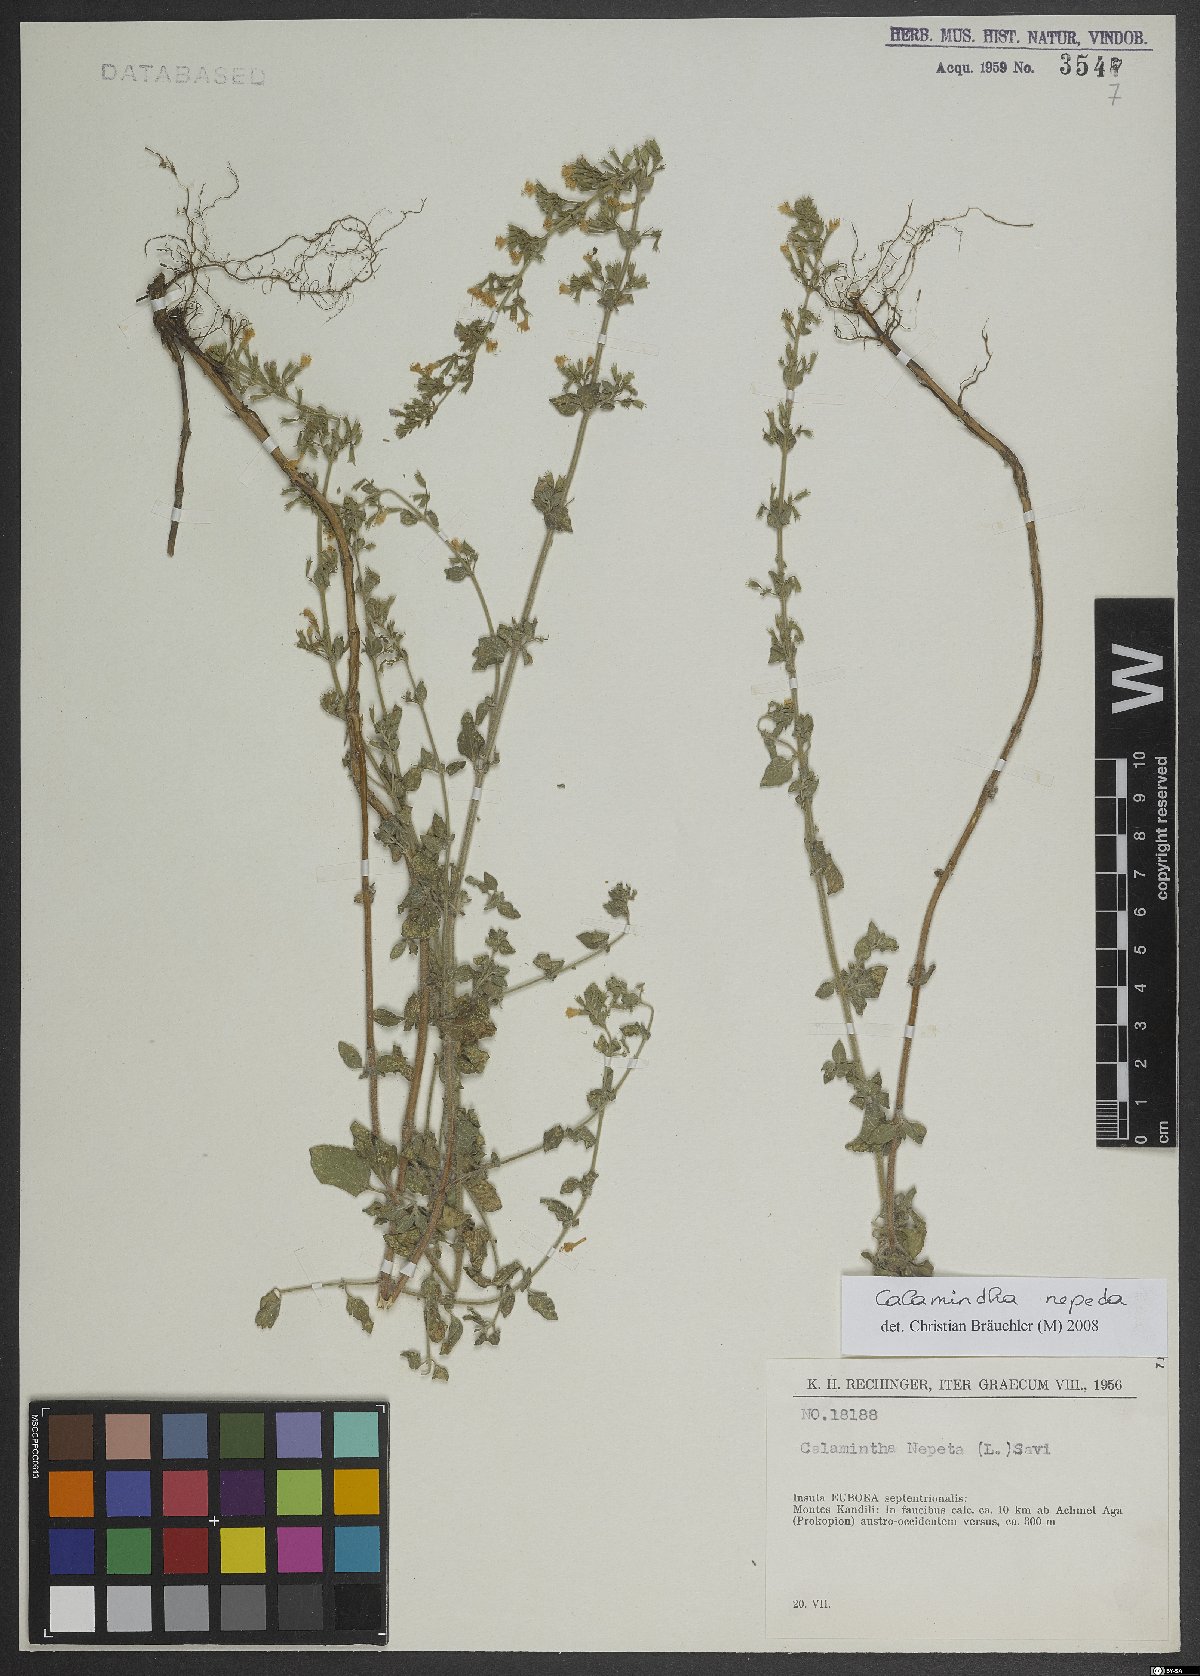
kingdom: Plantae
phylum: Tracheophyta
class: Magnoliopsida
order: Lamiales
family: Lamiaceae
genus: Clinopodium
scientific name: Clinopodium nepeta
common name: Lesser calamint
